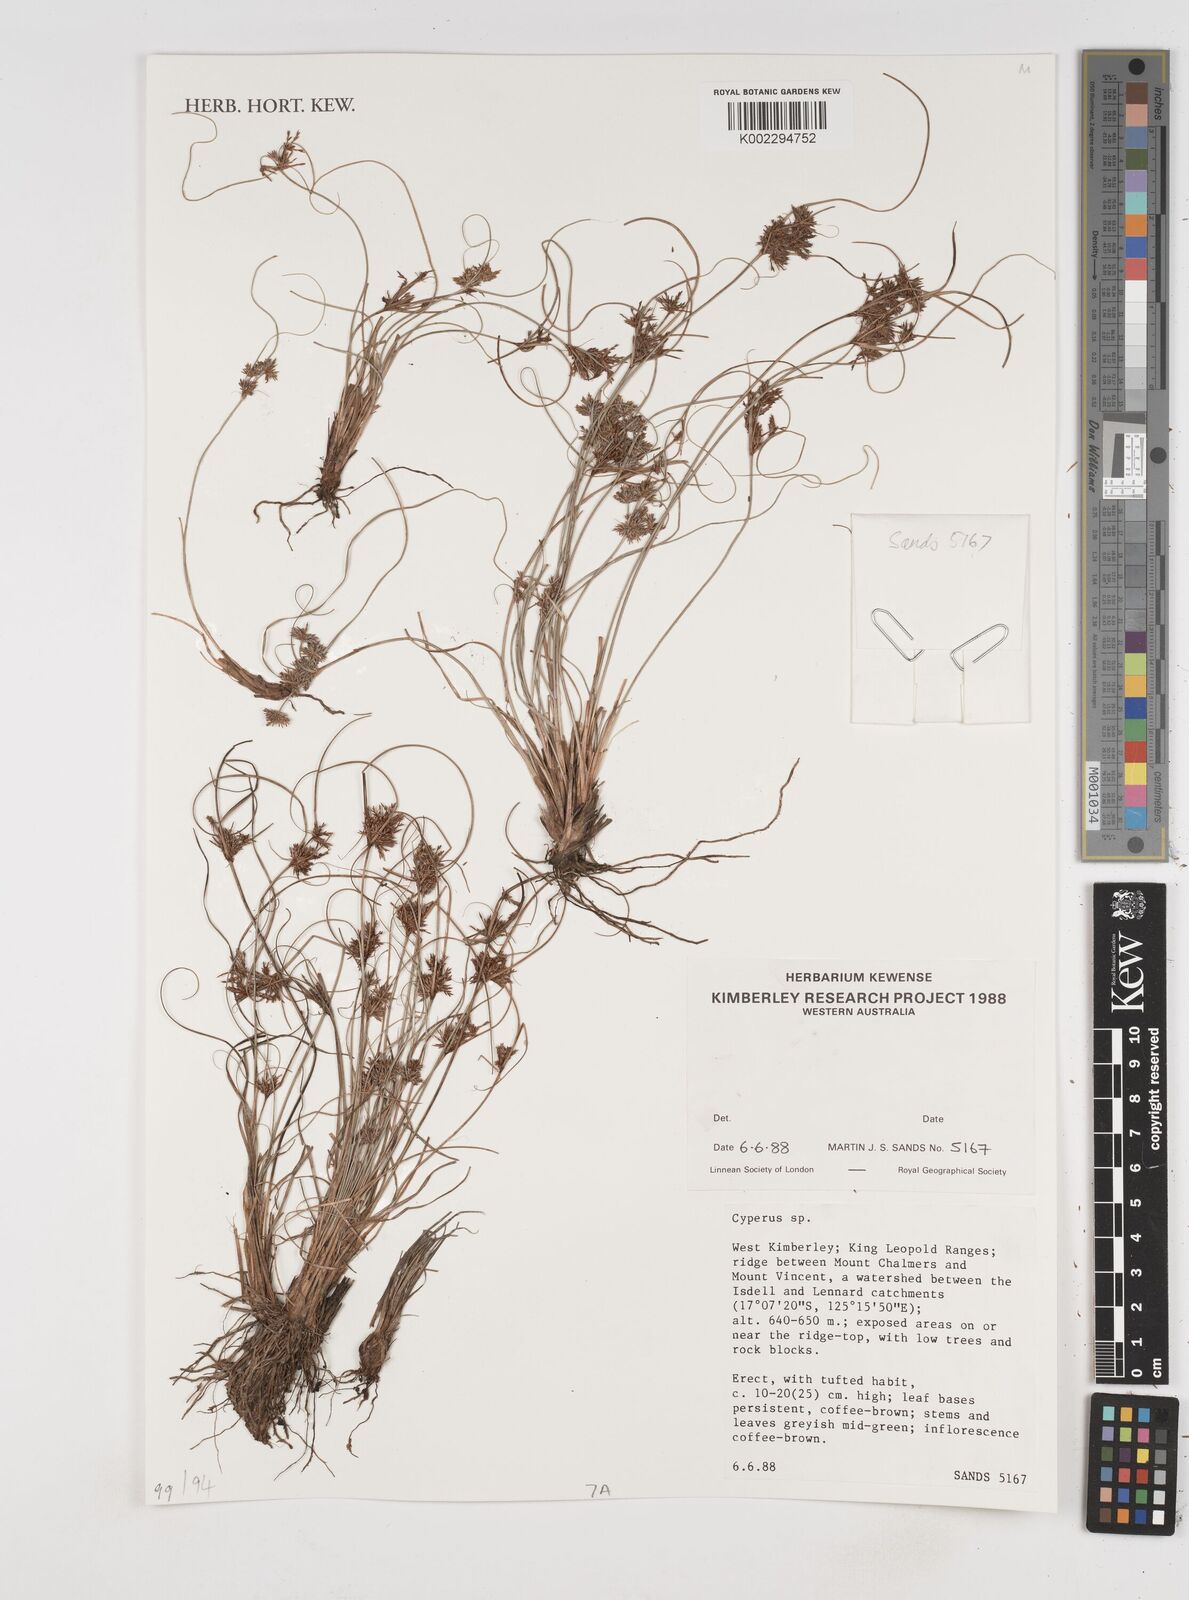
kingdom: Plantae
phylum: Tracheophyta
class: Liliopsida
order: Poales
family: Cyperaceae
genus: Cyperus
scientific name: Cyperus
